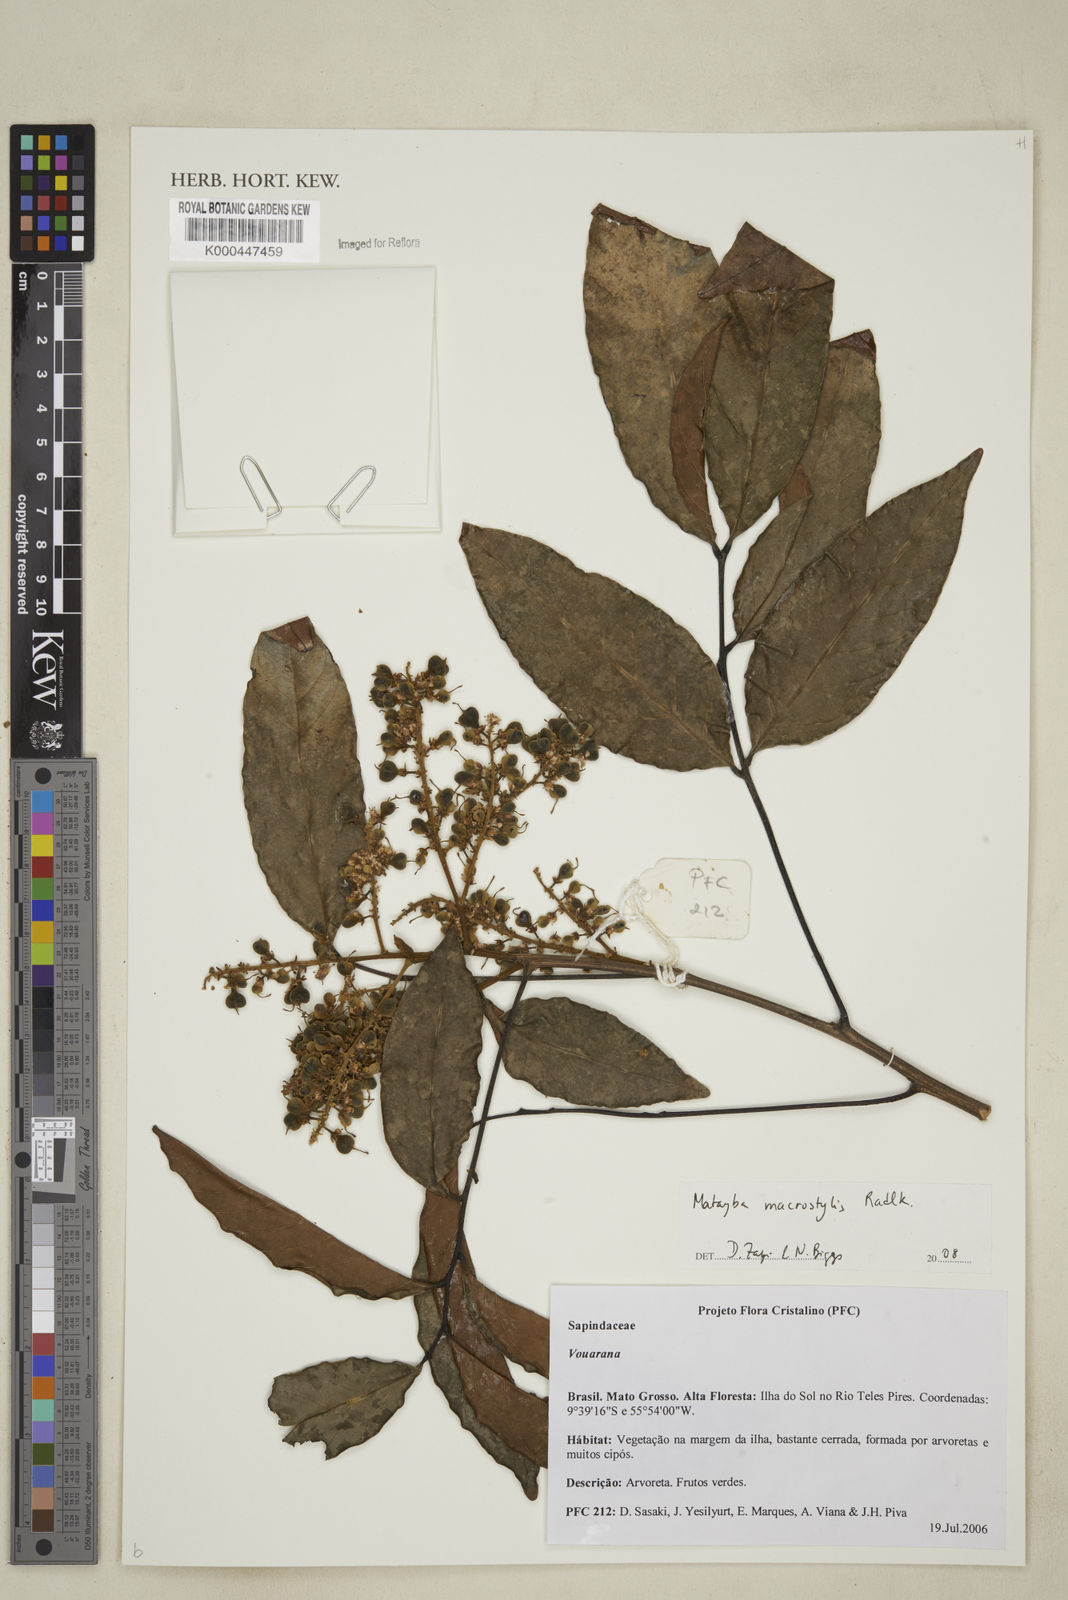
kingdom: Plantae
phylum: Tracheophyta
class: Magnoliopsida
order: Sapindales
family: Sapindaceae
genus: Cupania
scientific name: Cupania macrostylis
